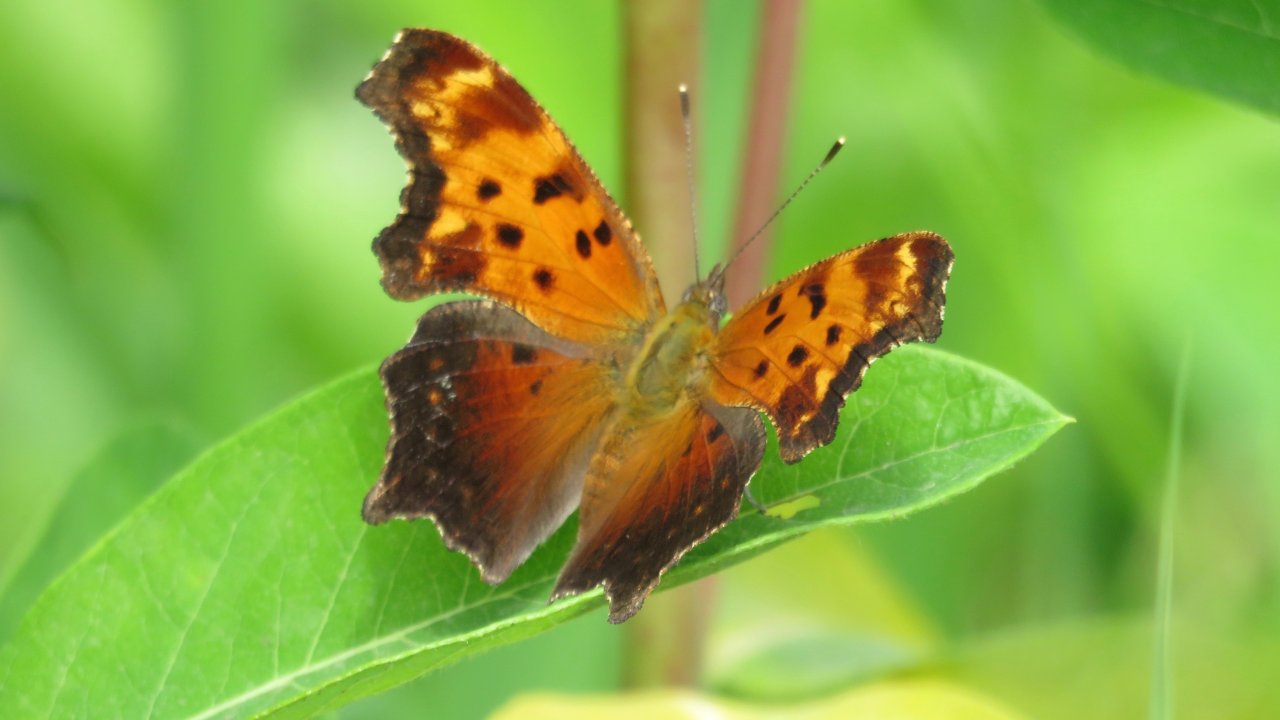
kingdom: Animalia
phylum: Arthropoda
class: Insecta
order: Lepidoptera
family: Nymphalidae
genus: Polygonia
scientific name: Polygonia comma
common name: Eastern Comma
